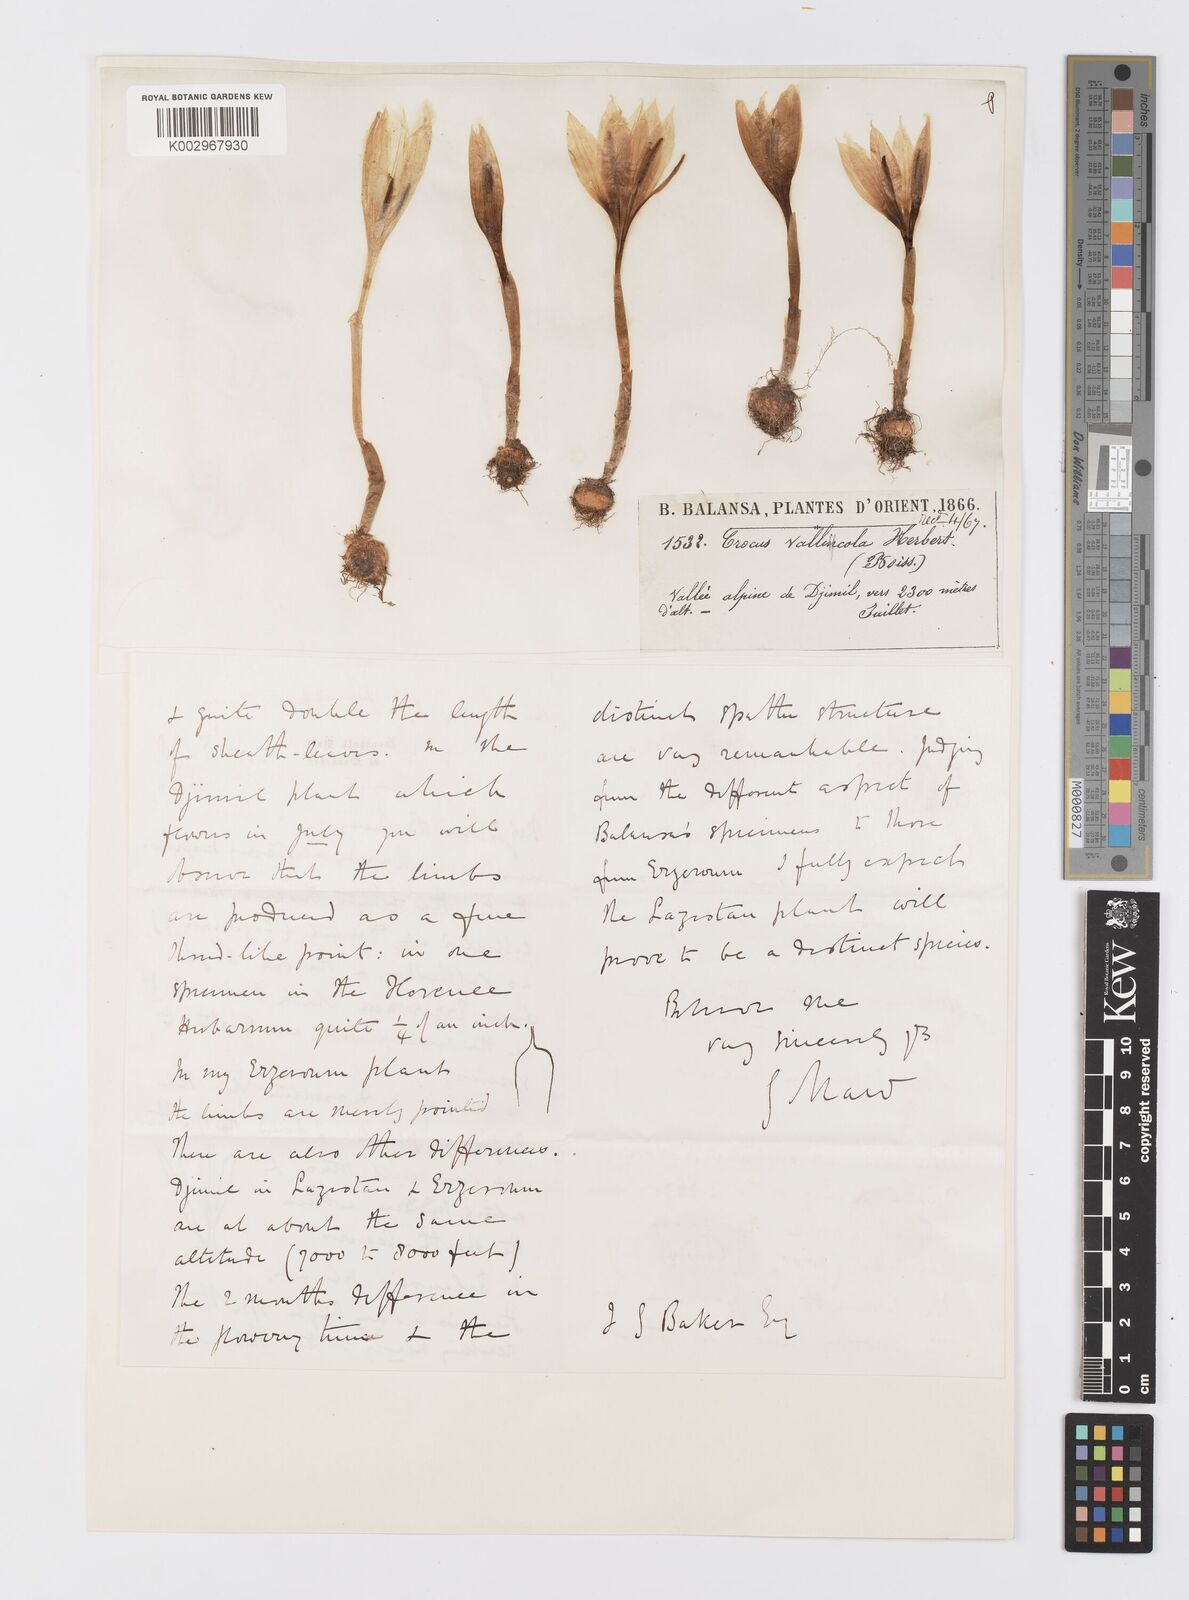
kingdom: Plantae
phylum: Tracheophyta
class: Liliopsida
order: Asparagales
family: Iridaceae
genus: Crocus
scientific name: Crocus vallicola
